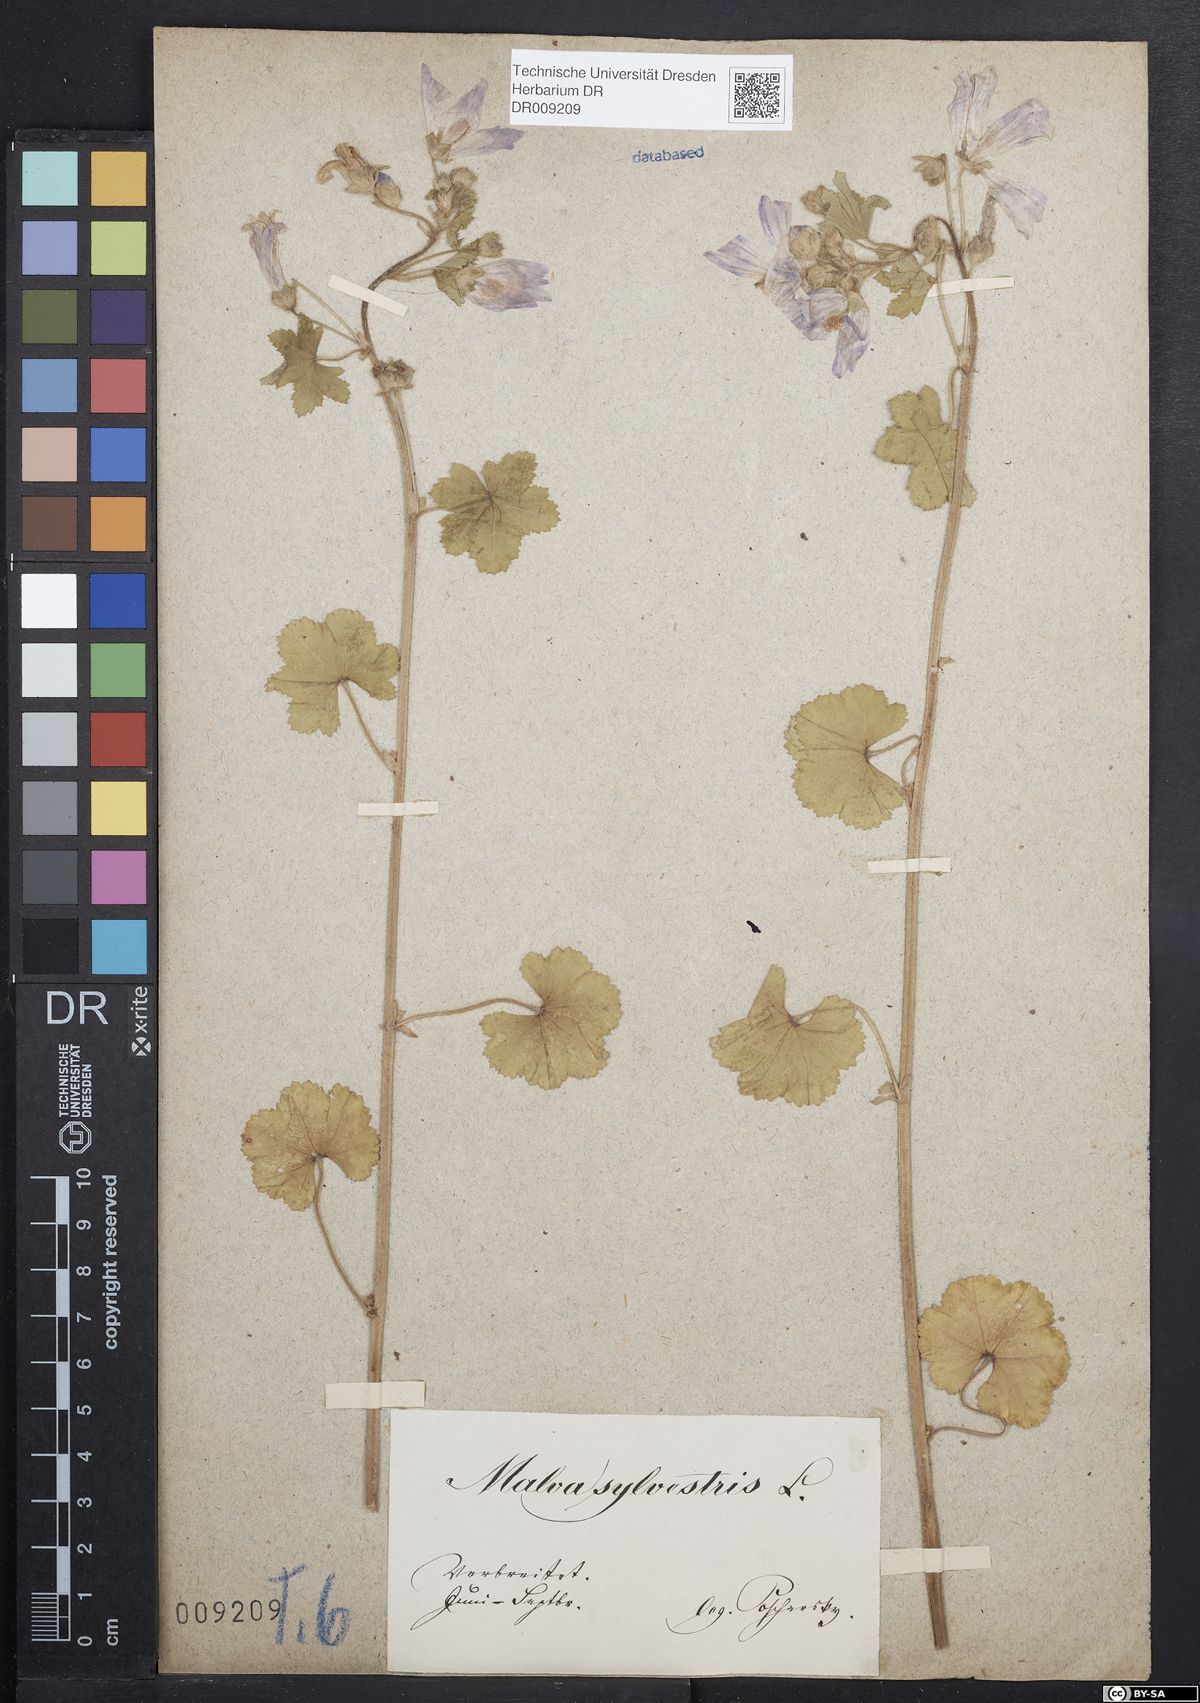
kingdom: Plantae
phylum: Tracheophyta
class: Magnoliopsida
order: Malvales
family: Malvaceae
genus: Malva
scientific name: Malva sylvestris
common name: Common mallow
